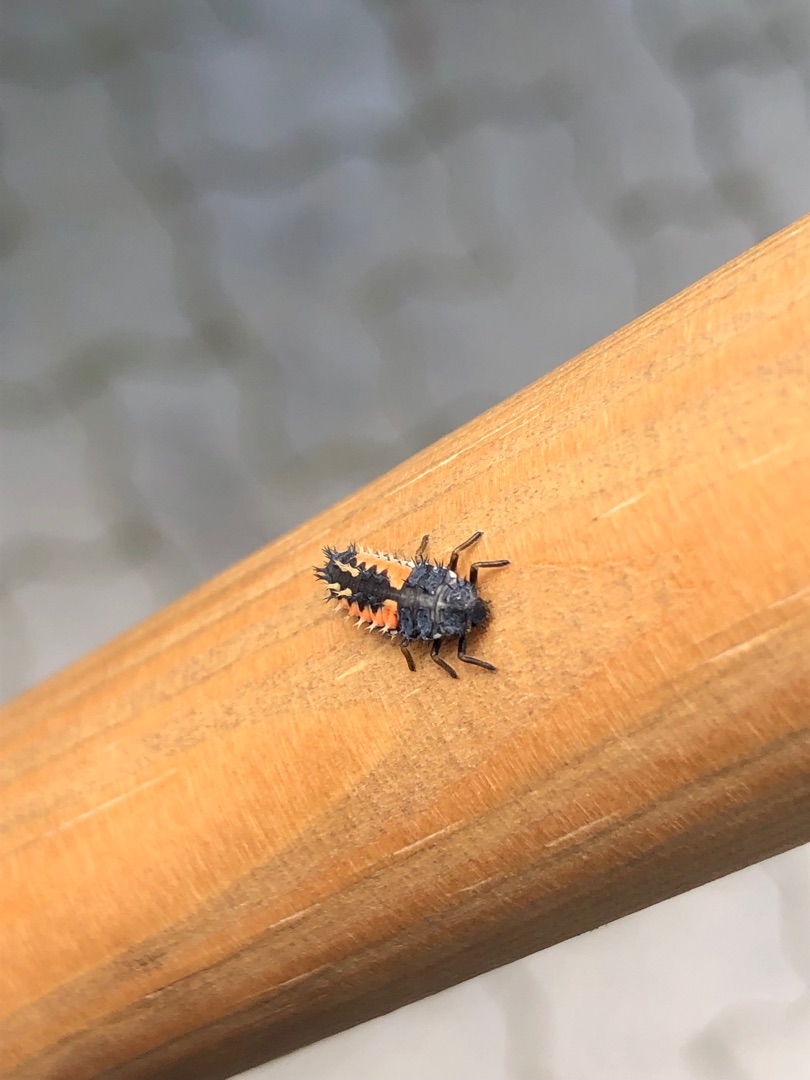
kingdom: Animalia
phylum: Arthropoda
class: Insecta
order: Coleoptera
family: Coccinellidae
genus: Harmonia
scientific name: Harmonia axyridis
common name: Harlekinmariehøne
